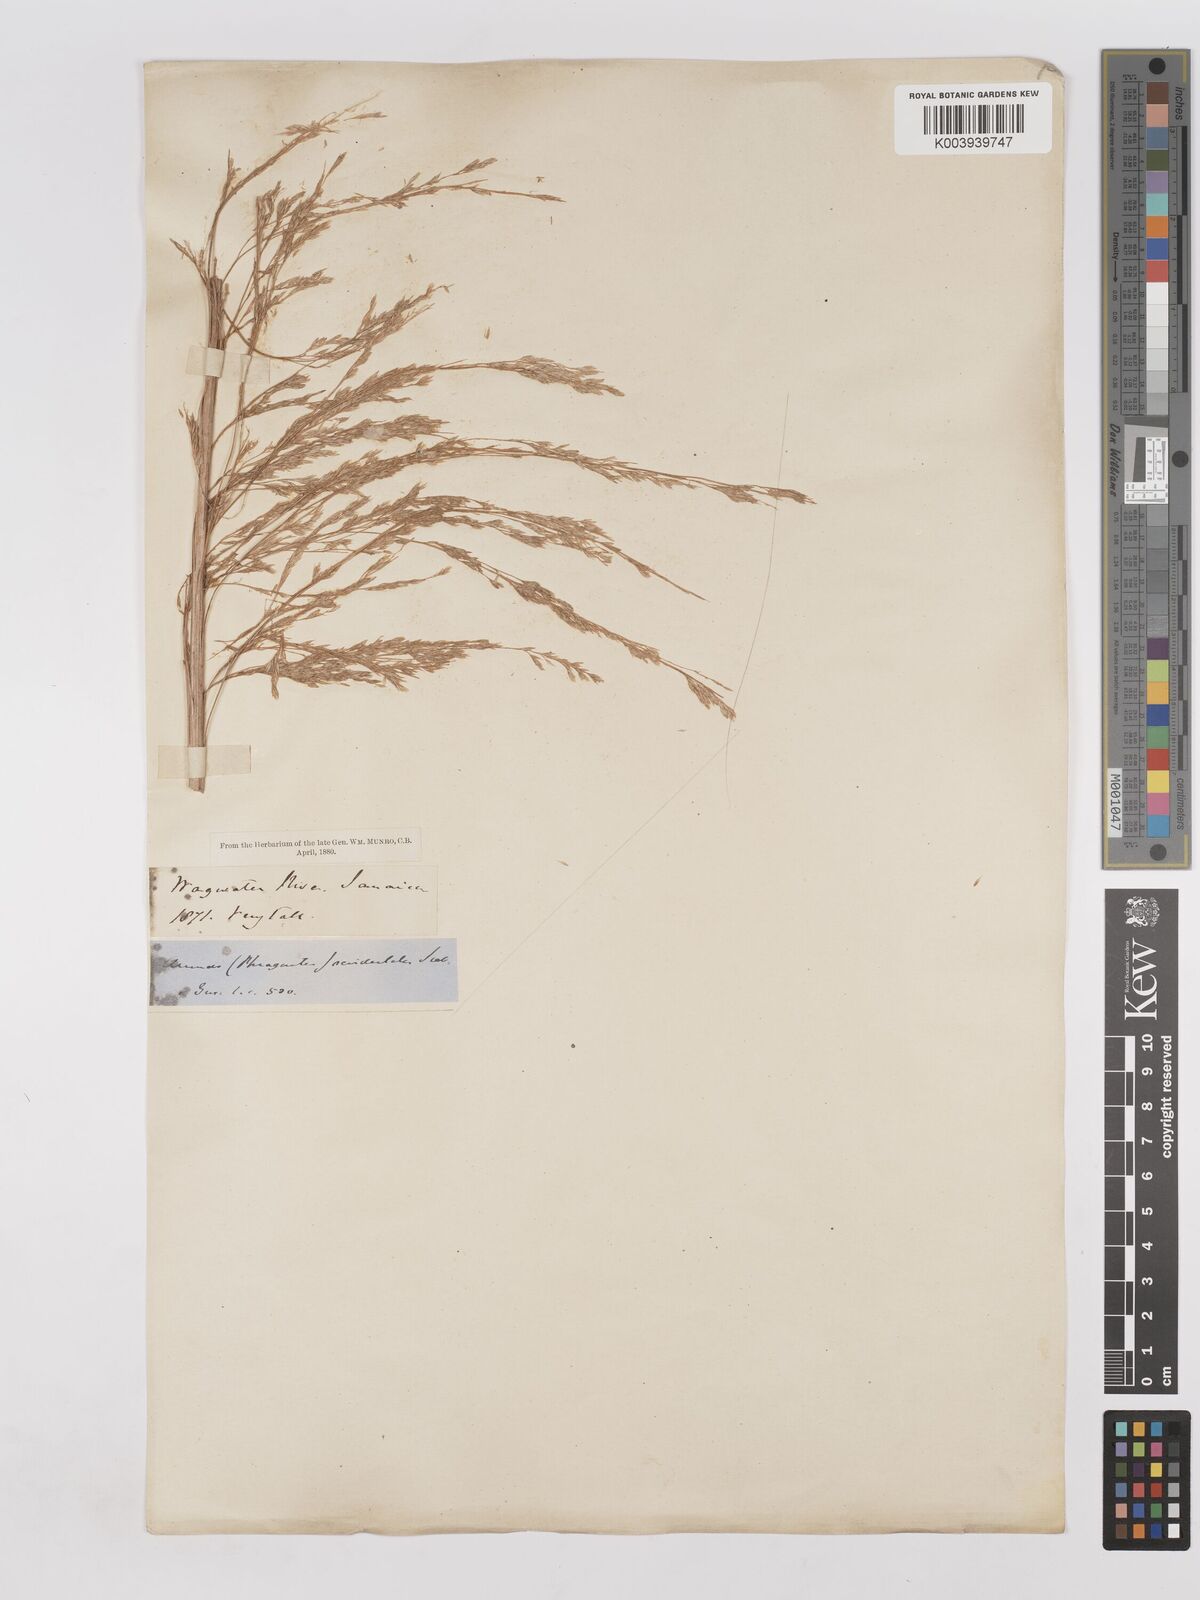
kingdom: Plantae
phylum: Tracheophyta
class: Liliopsida
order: Poales
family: Poaceae
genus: Gynerium
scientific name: Gynerium sagittatum
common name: Wild cane
